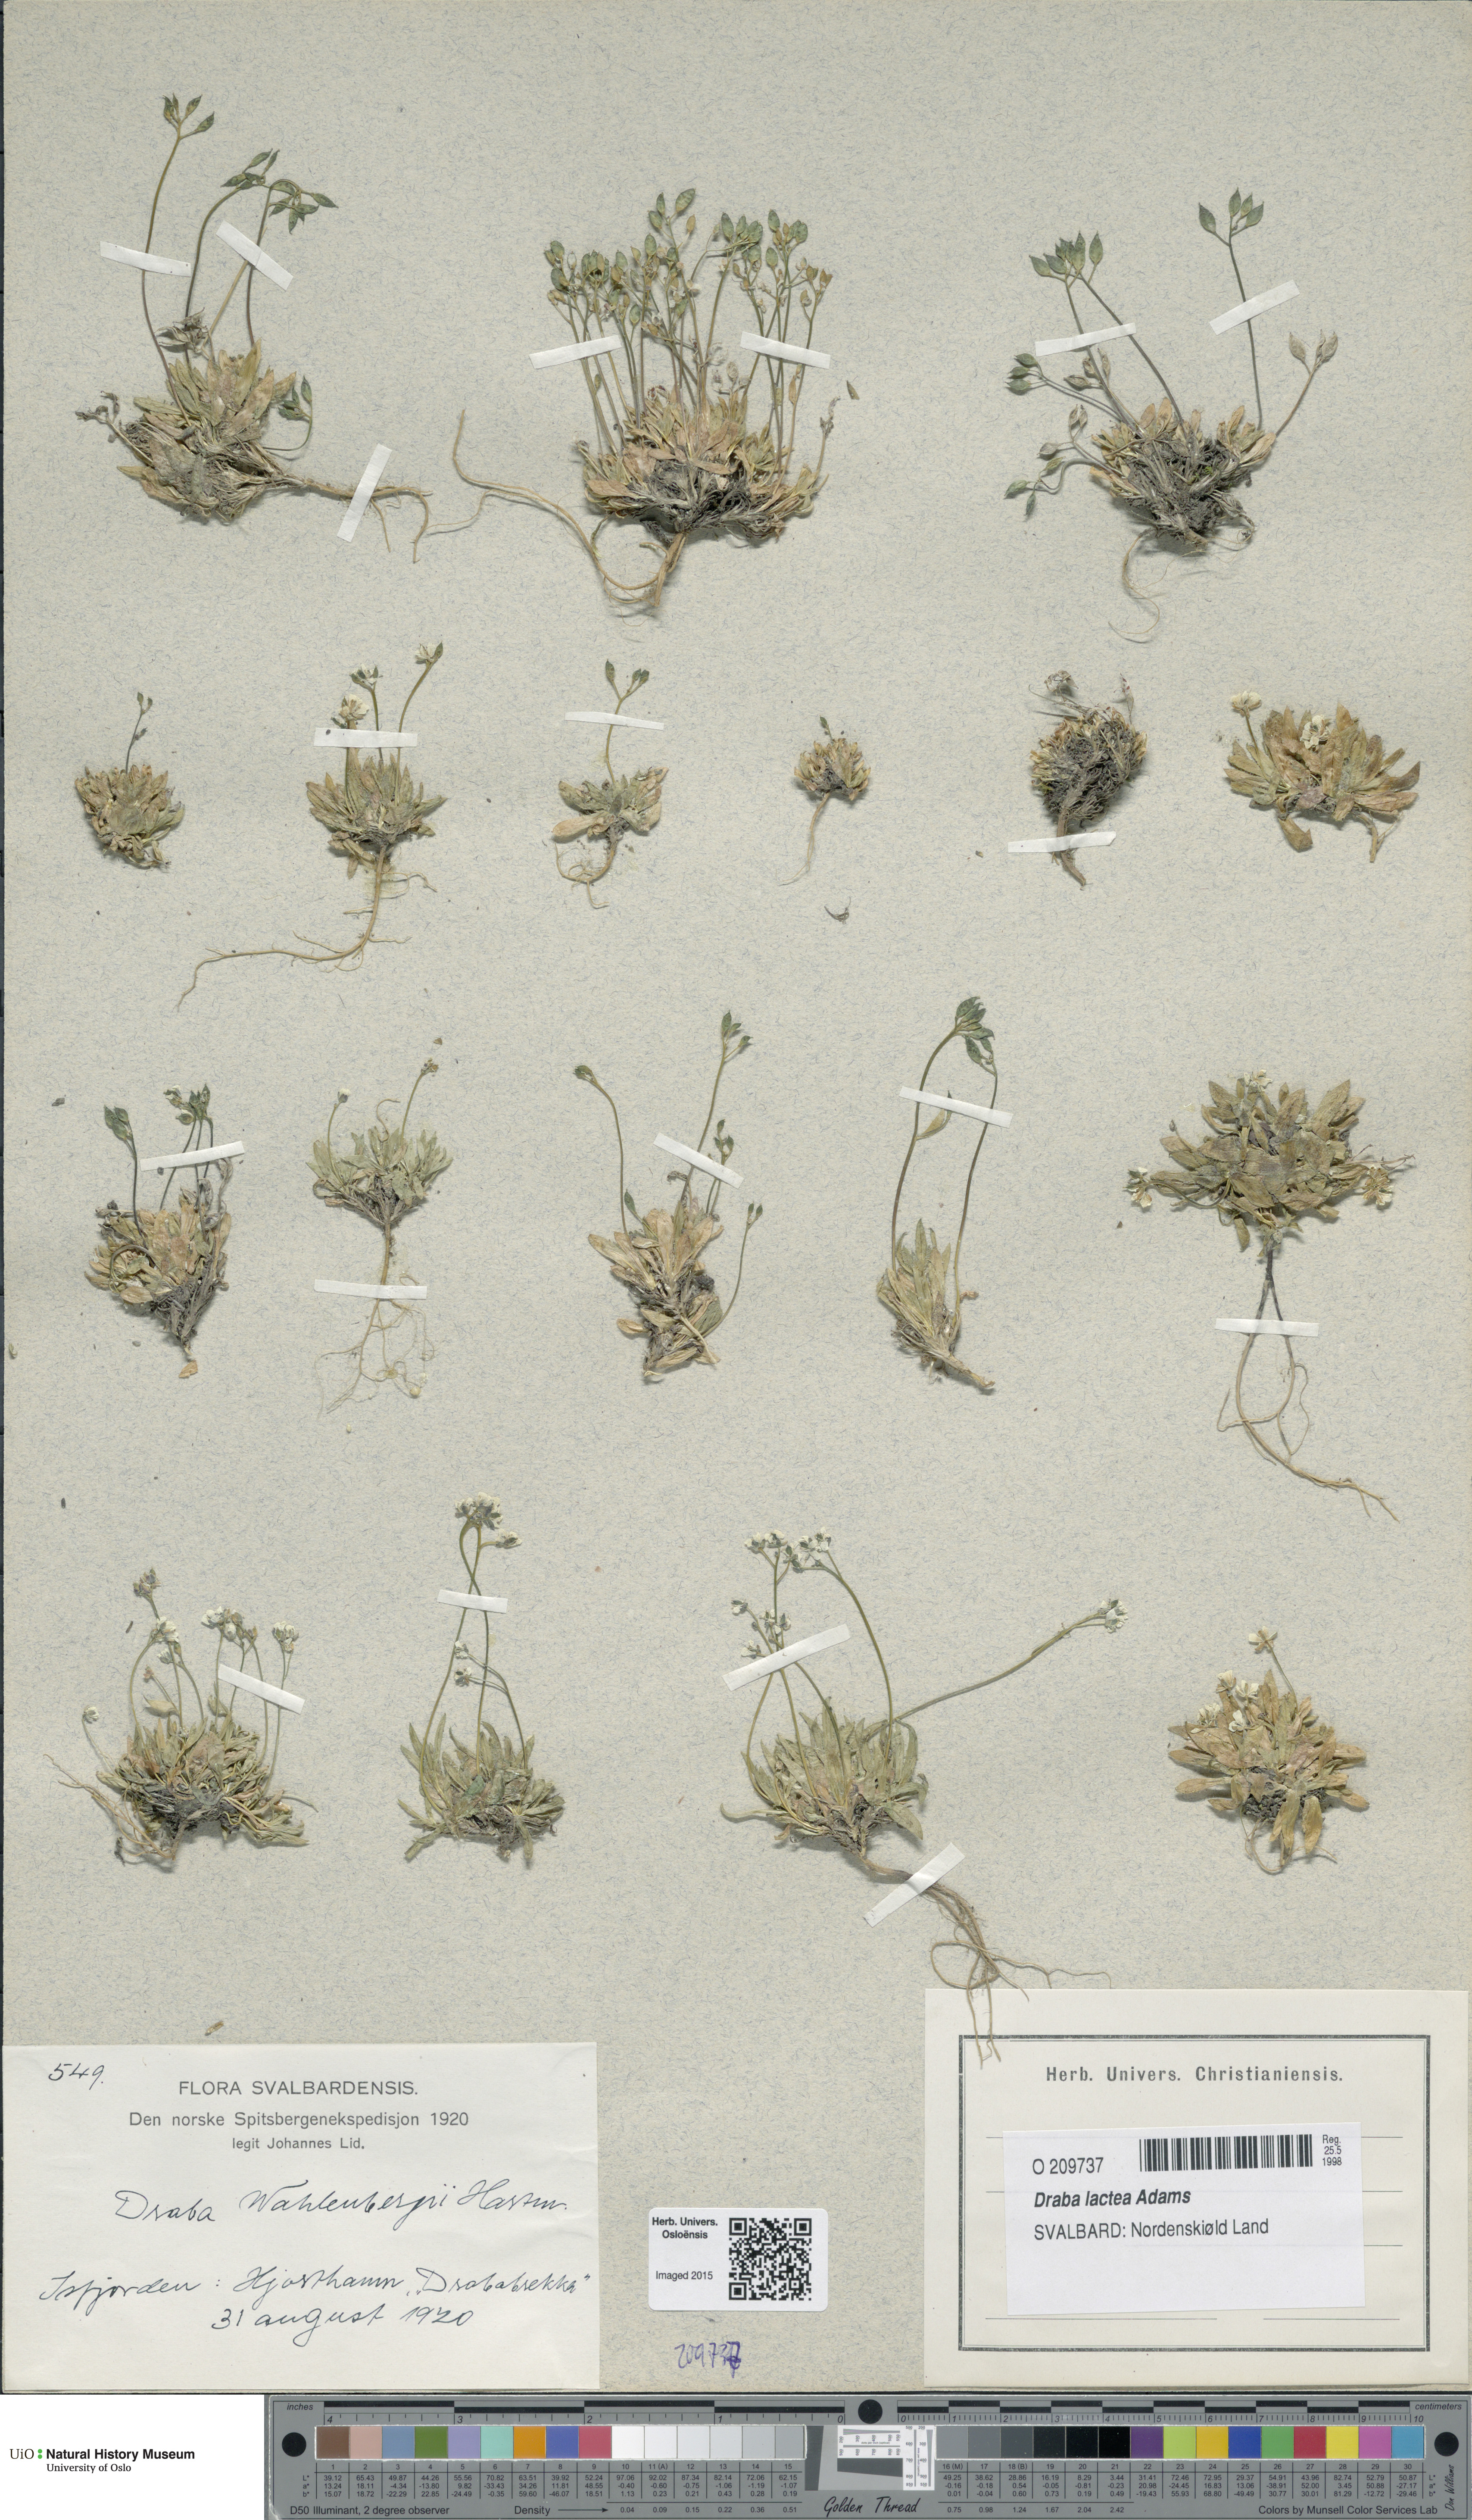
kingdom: Plantae
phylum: Tracheophyta
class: Magnoliopsida
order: Brassicales
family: Brassicaceae
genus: Draba
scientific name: Draba lactea
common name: Milky draba
